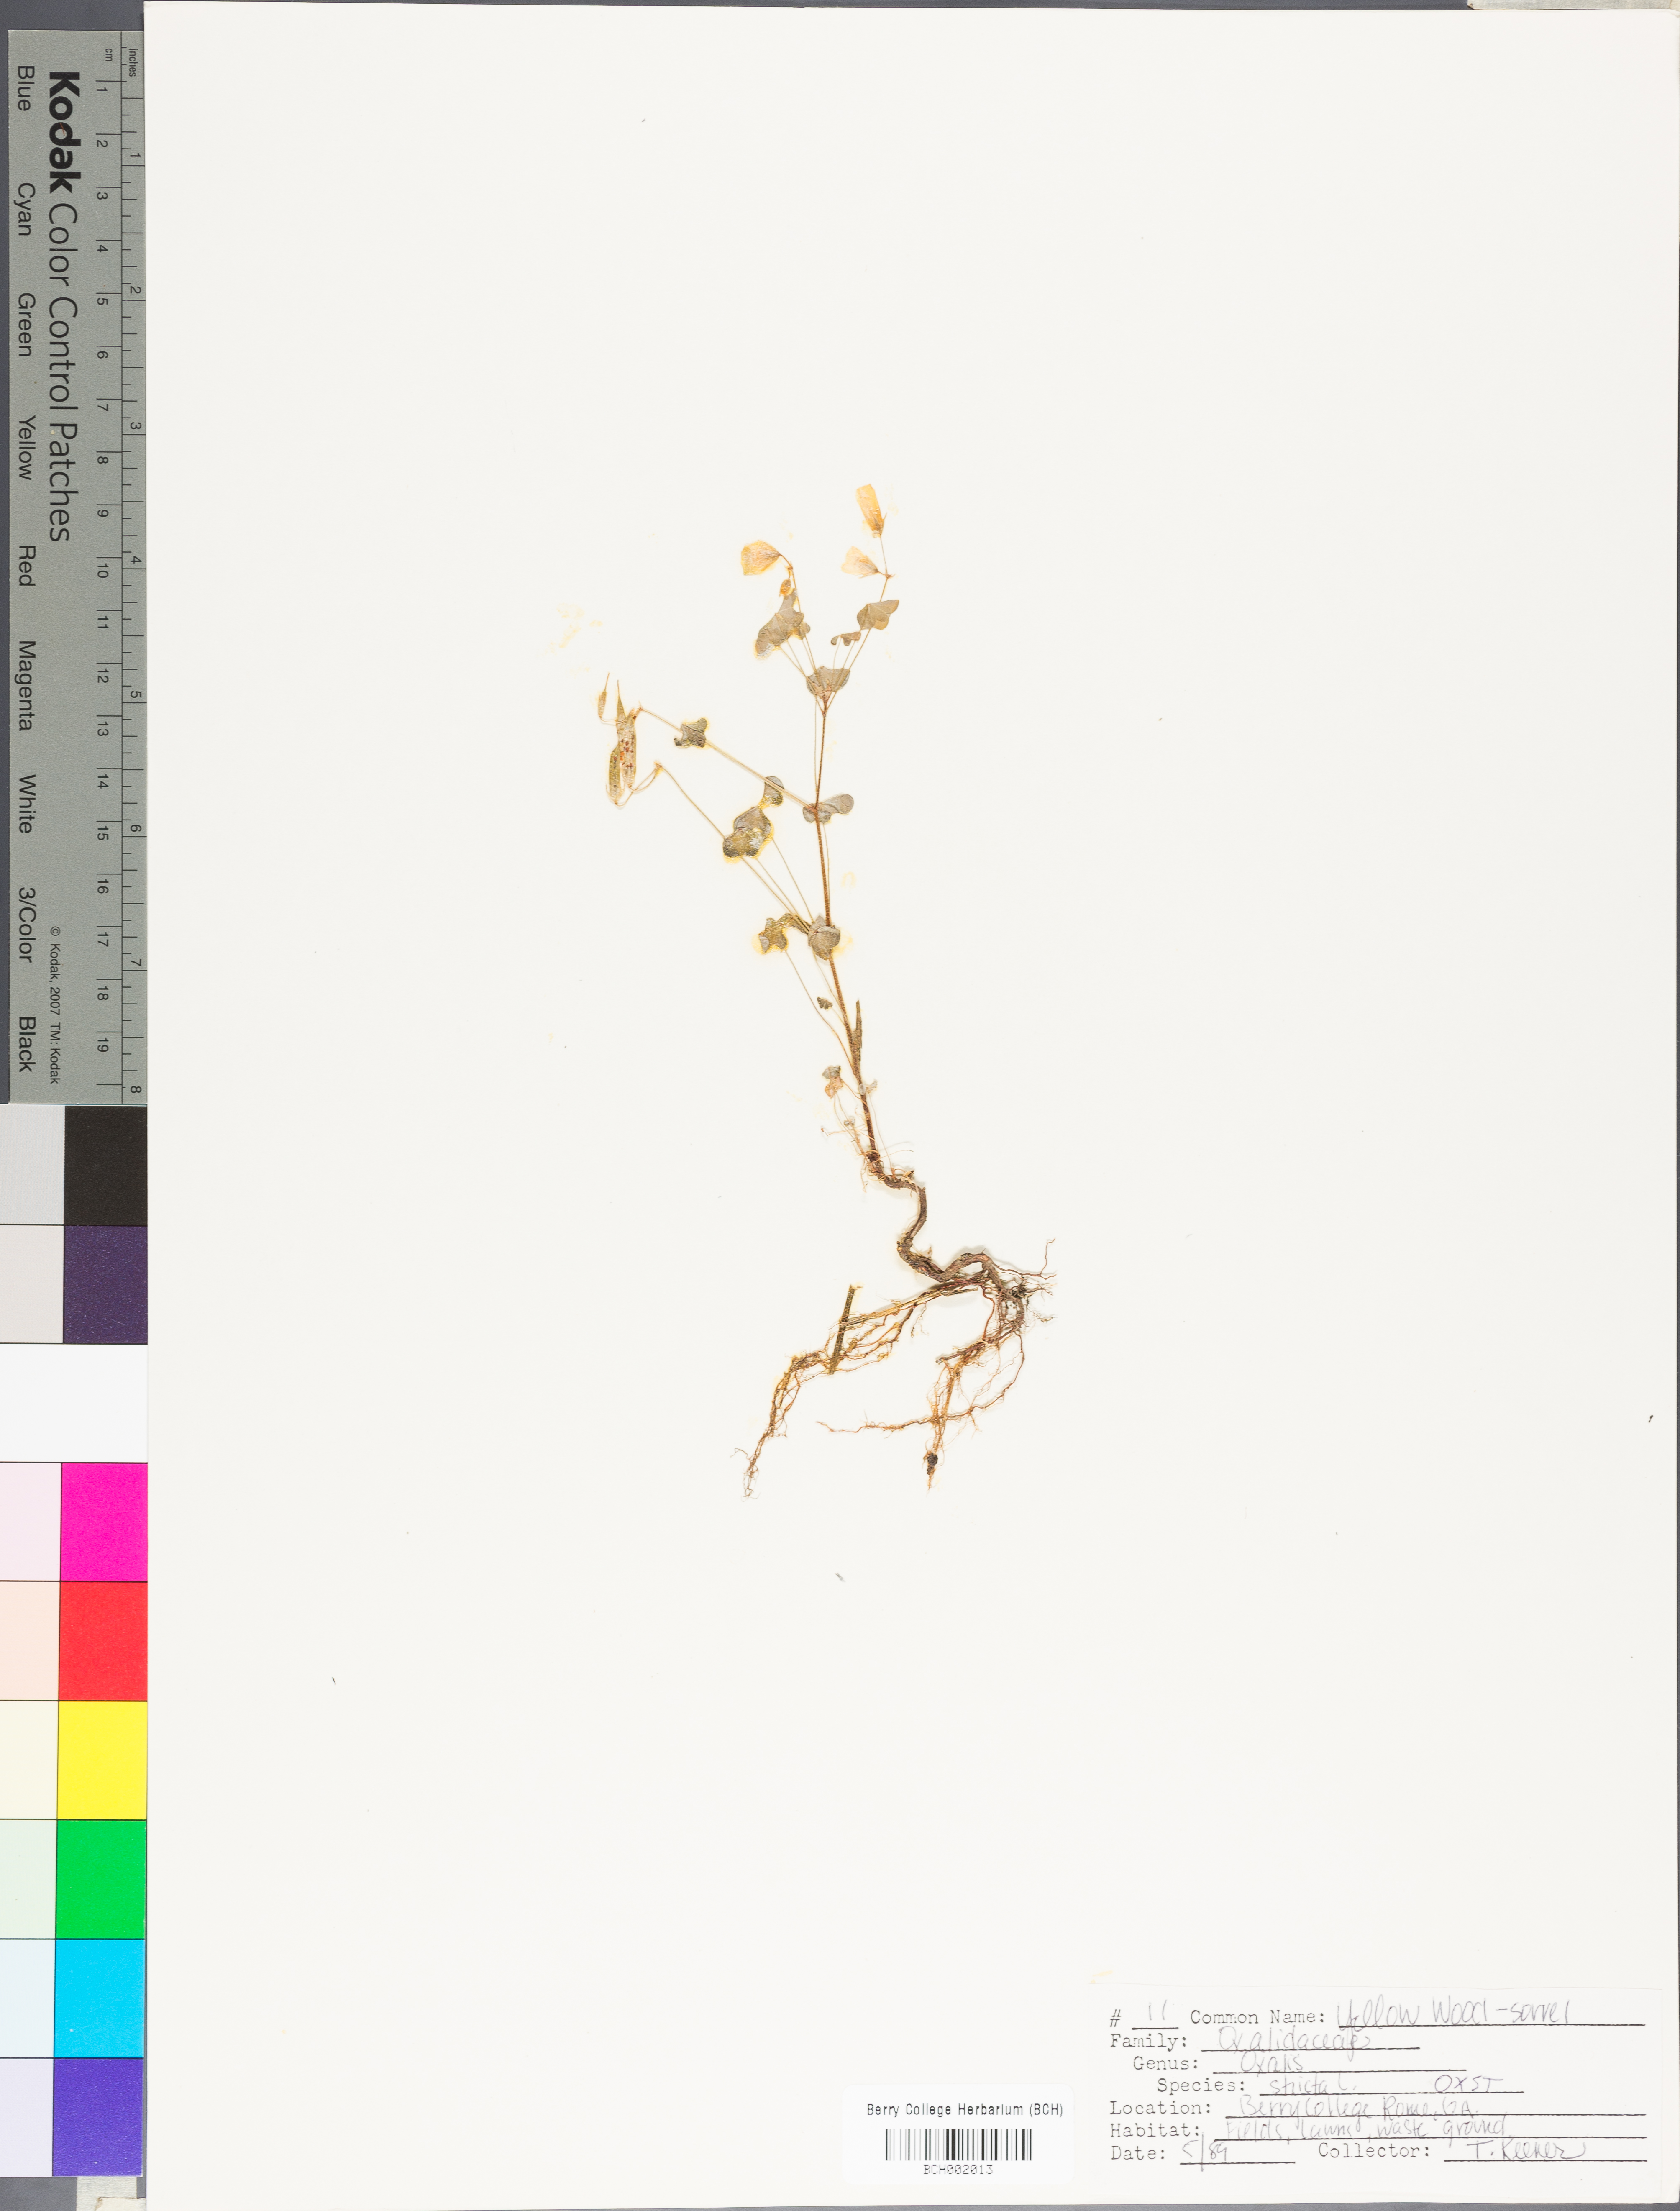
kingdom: Plantae
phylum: Tracheophyta
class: Magnoliopsida
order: Oxalidales
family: Oxalidaceae
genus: Oxalis
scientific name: Oxalis stricta
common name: Upright yellow-sorrel
